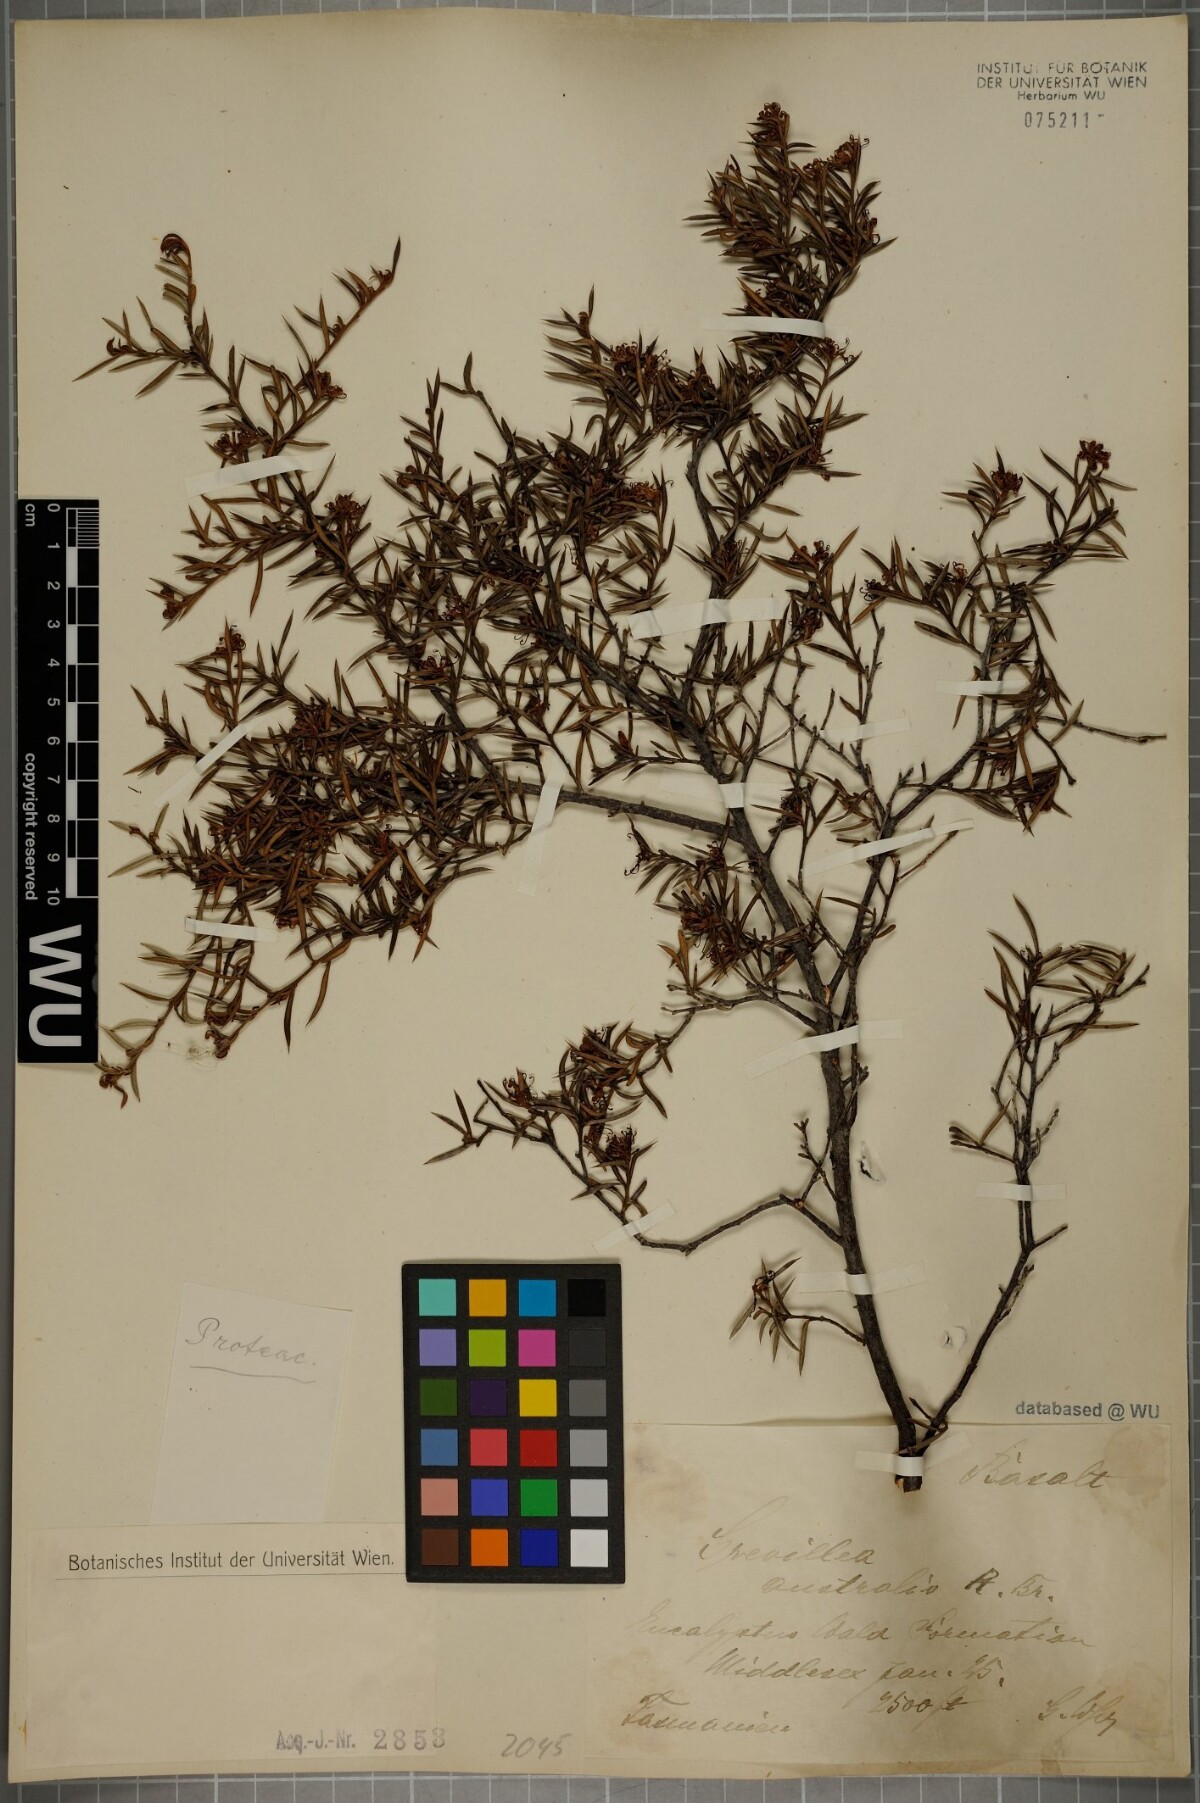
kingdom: Plantae
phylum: Tracheophyta
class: Magnoliopsida
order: Proteales
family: Proteaceae
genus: Grevillea
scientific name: Grevillea australis
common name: Alpine grevillea
